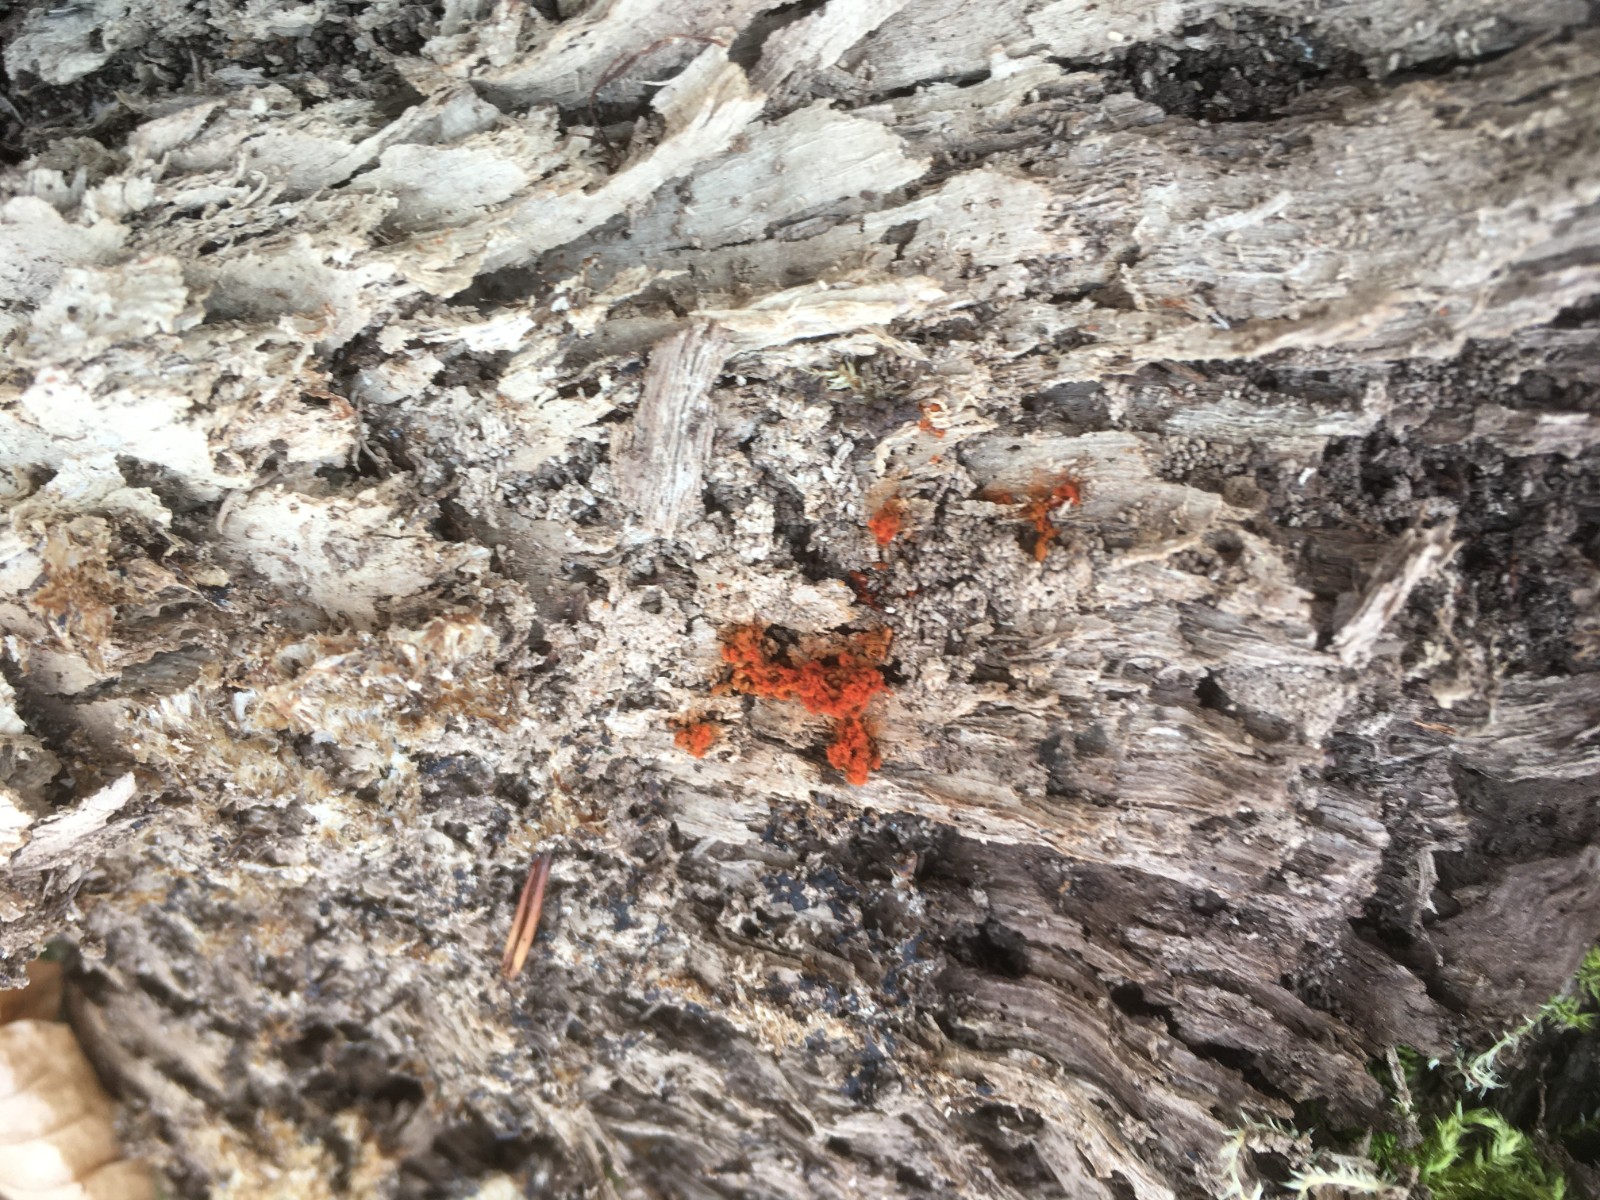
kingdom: Protozoa
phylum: Mycetozoa
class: Myxomycetes
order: Trichiales
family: Trichiaceae
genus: Metatrichia
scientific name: Metatrichia vesparia
